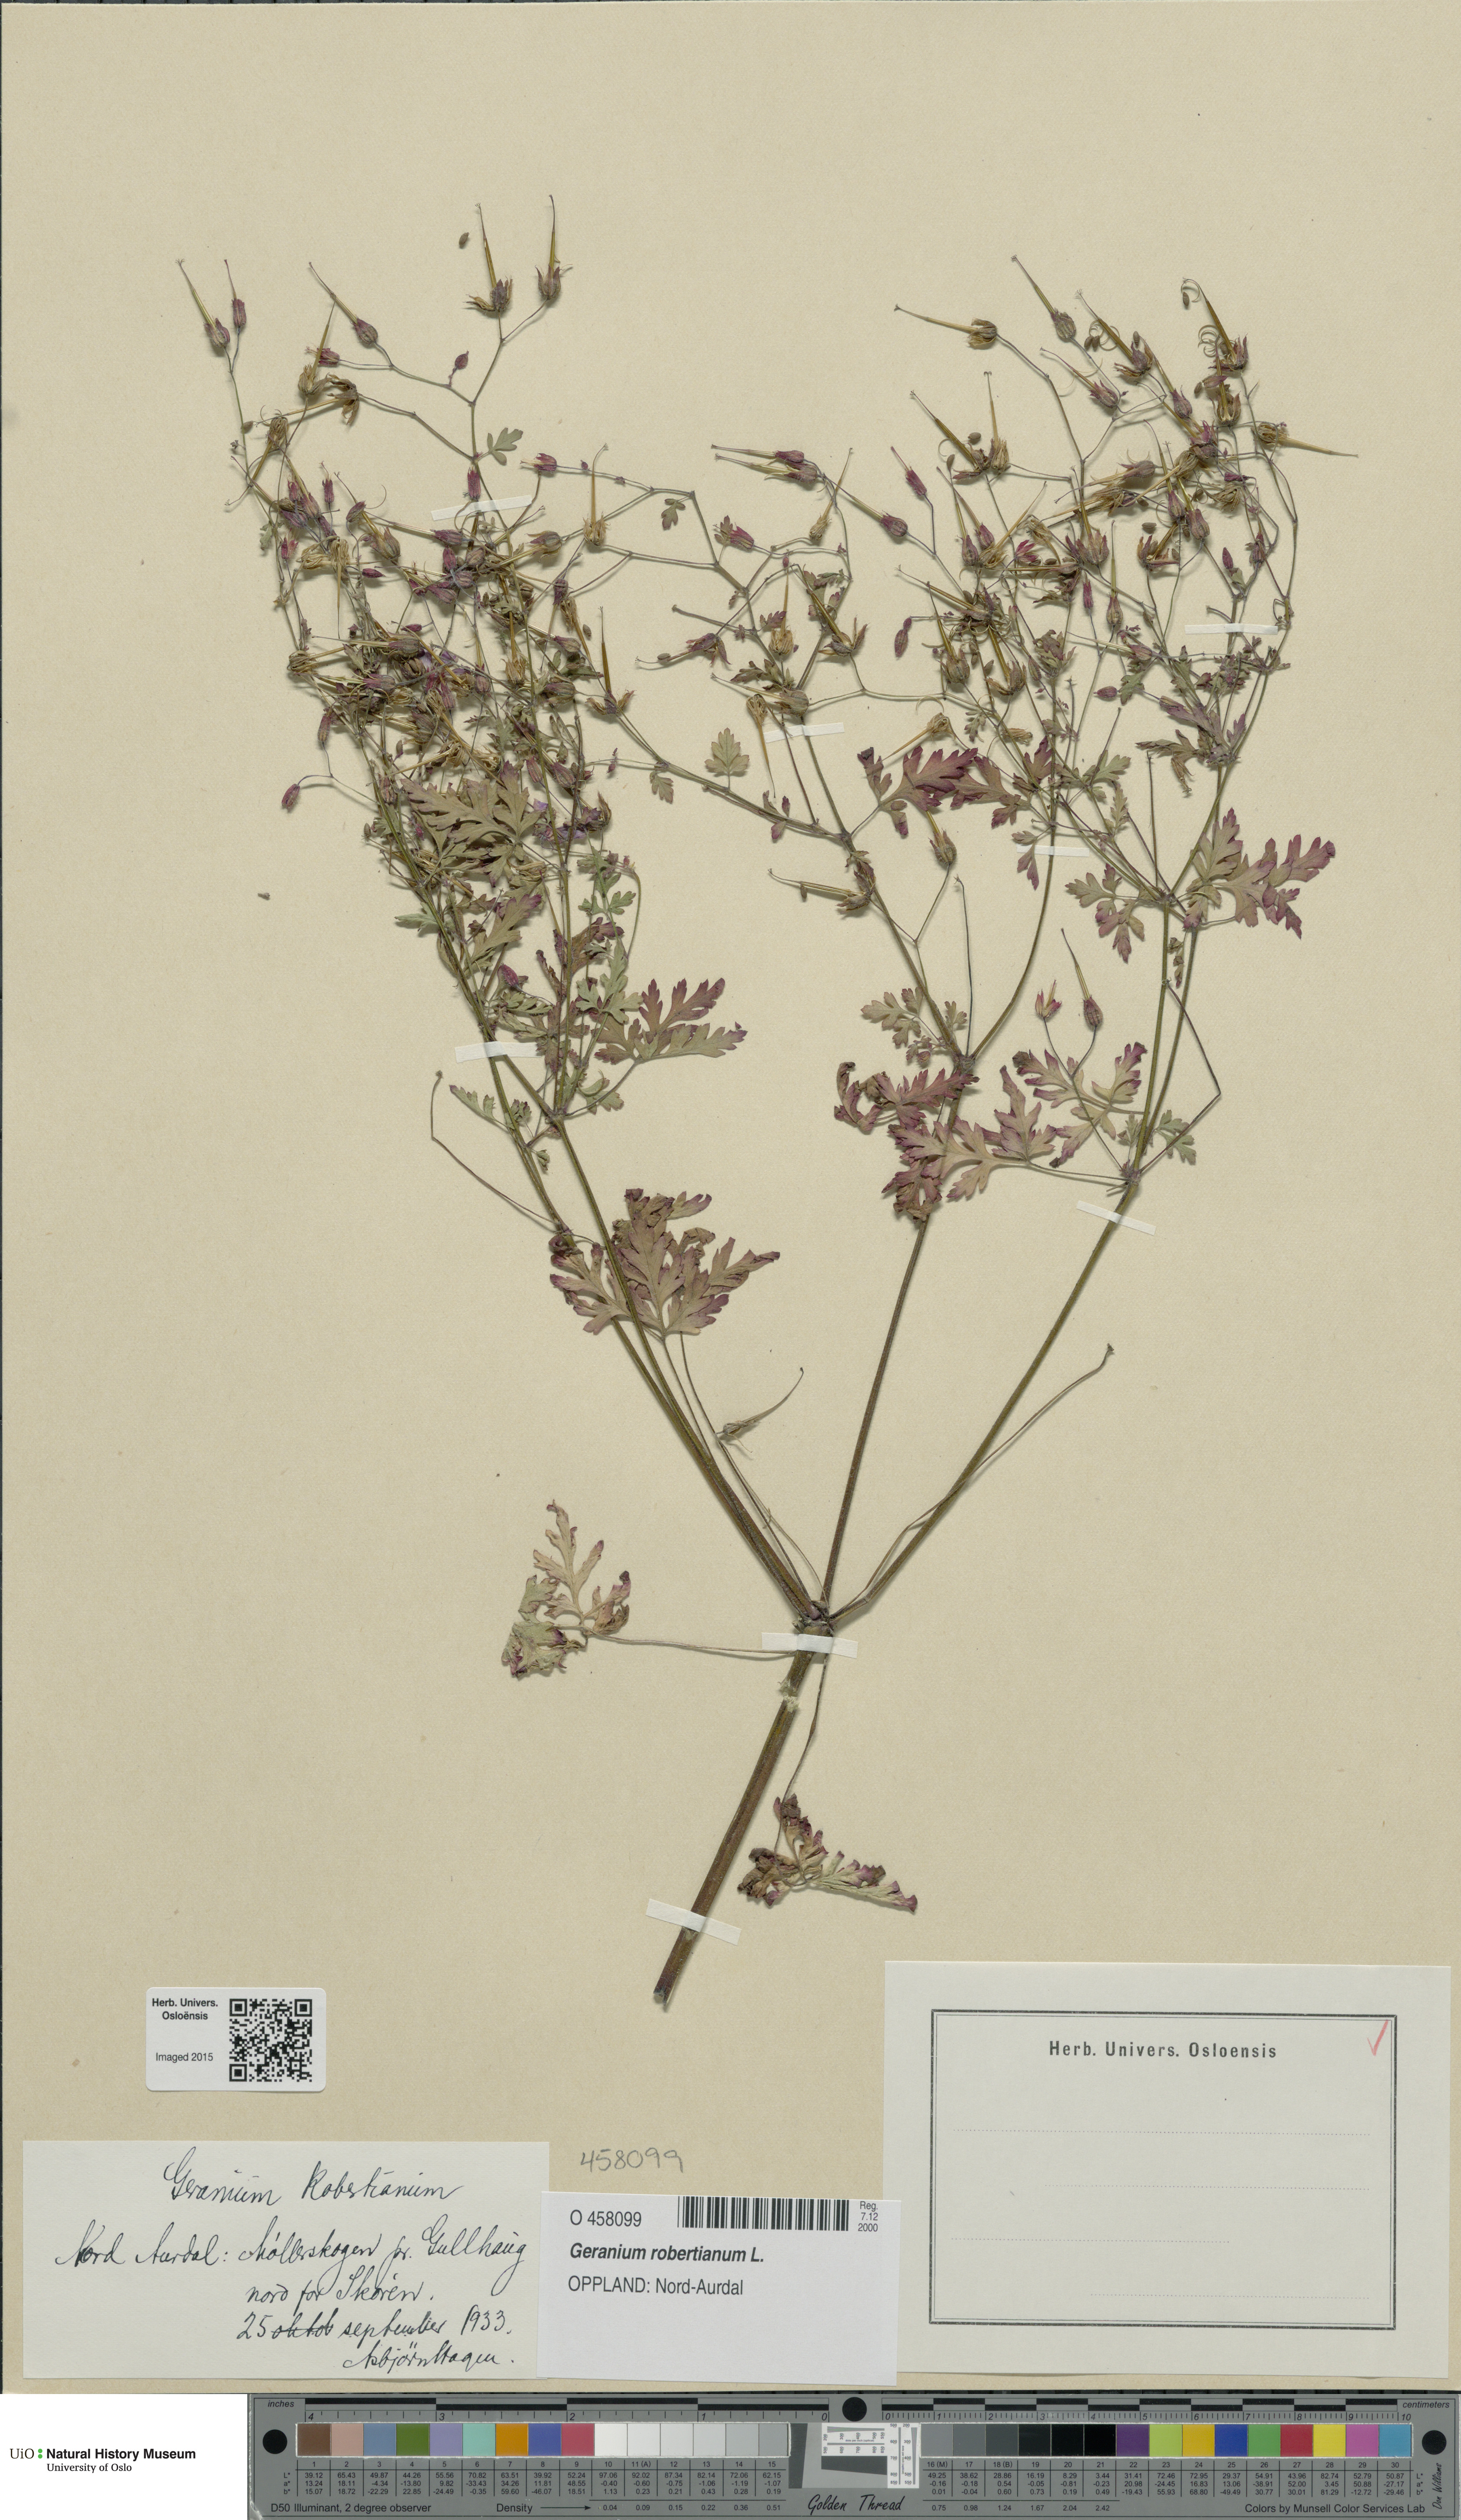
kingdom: Plantae
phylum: Tracheophyta
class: Magnoliopsida
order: Geraniales
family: Geraniaceae
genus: Geranium
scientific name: Geranium robertianum
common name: Herb-robert
